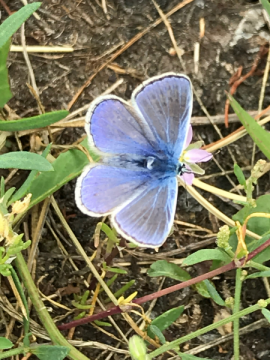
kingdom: Animalia
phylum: Arthropoda
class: Insecta
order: Lepidoptera
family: Lycaenidae
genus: Polyommatus
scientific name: Polyommatus icarus
